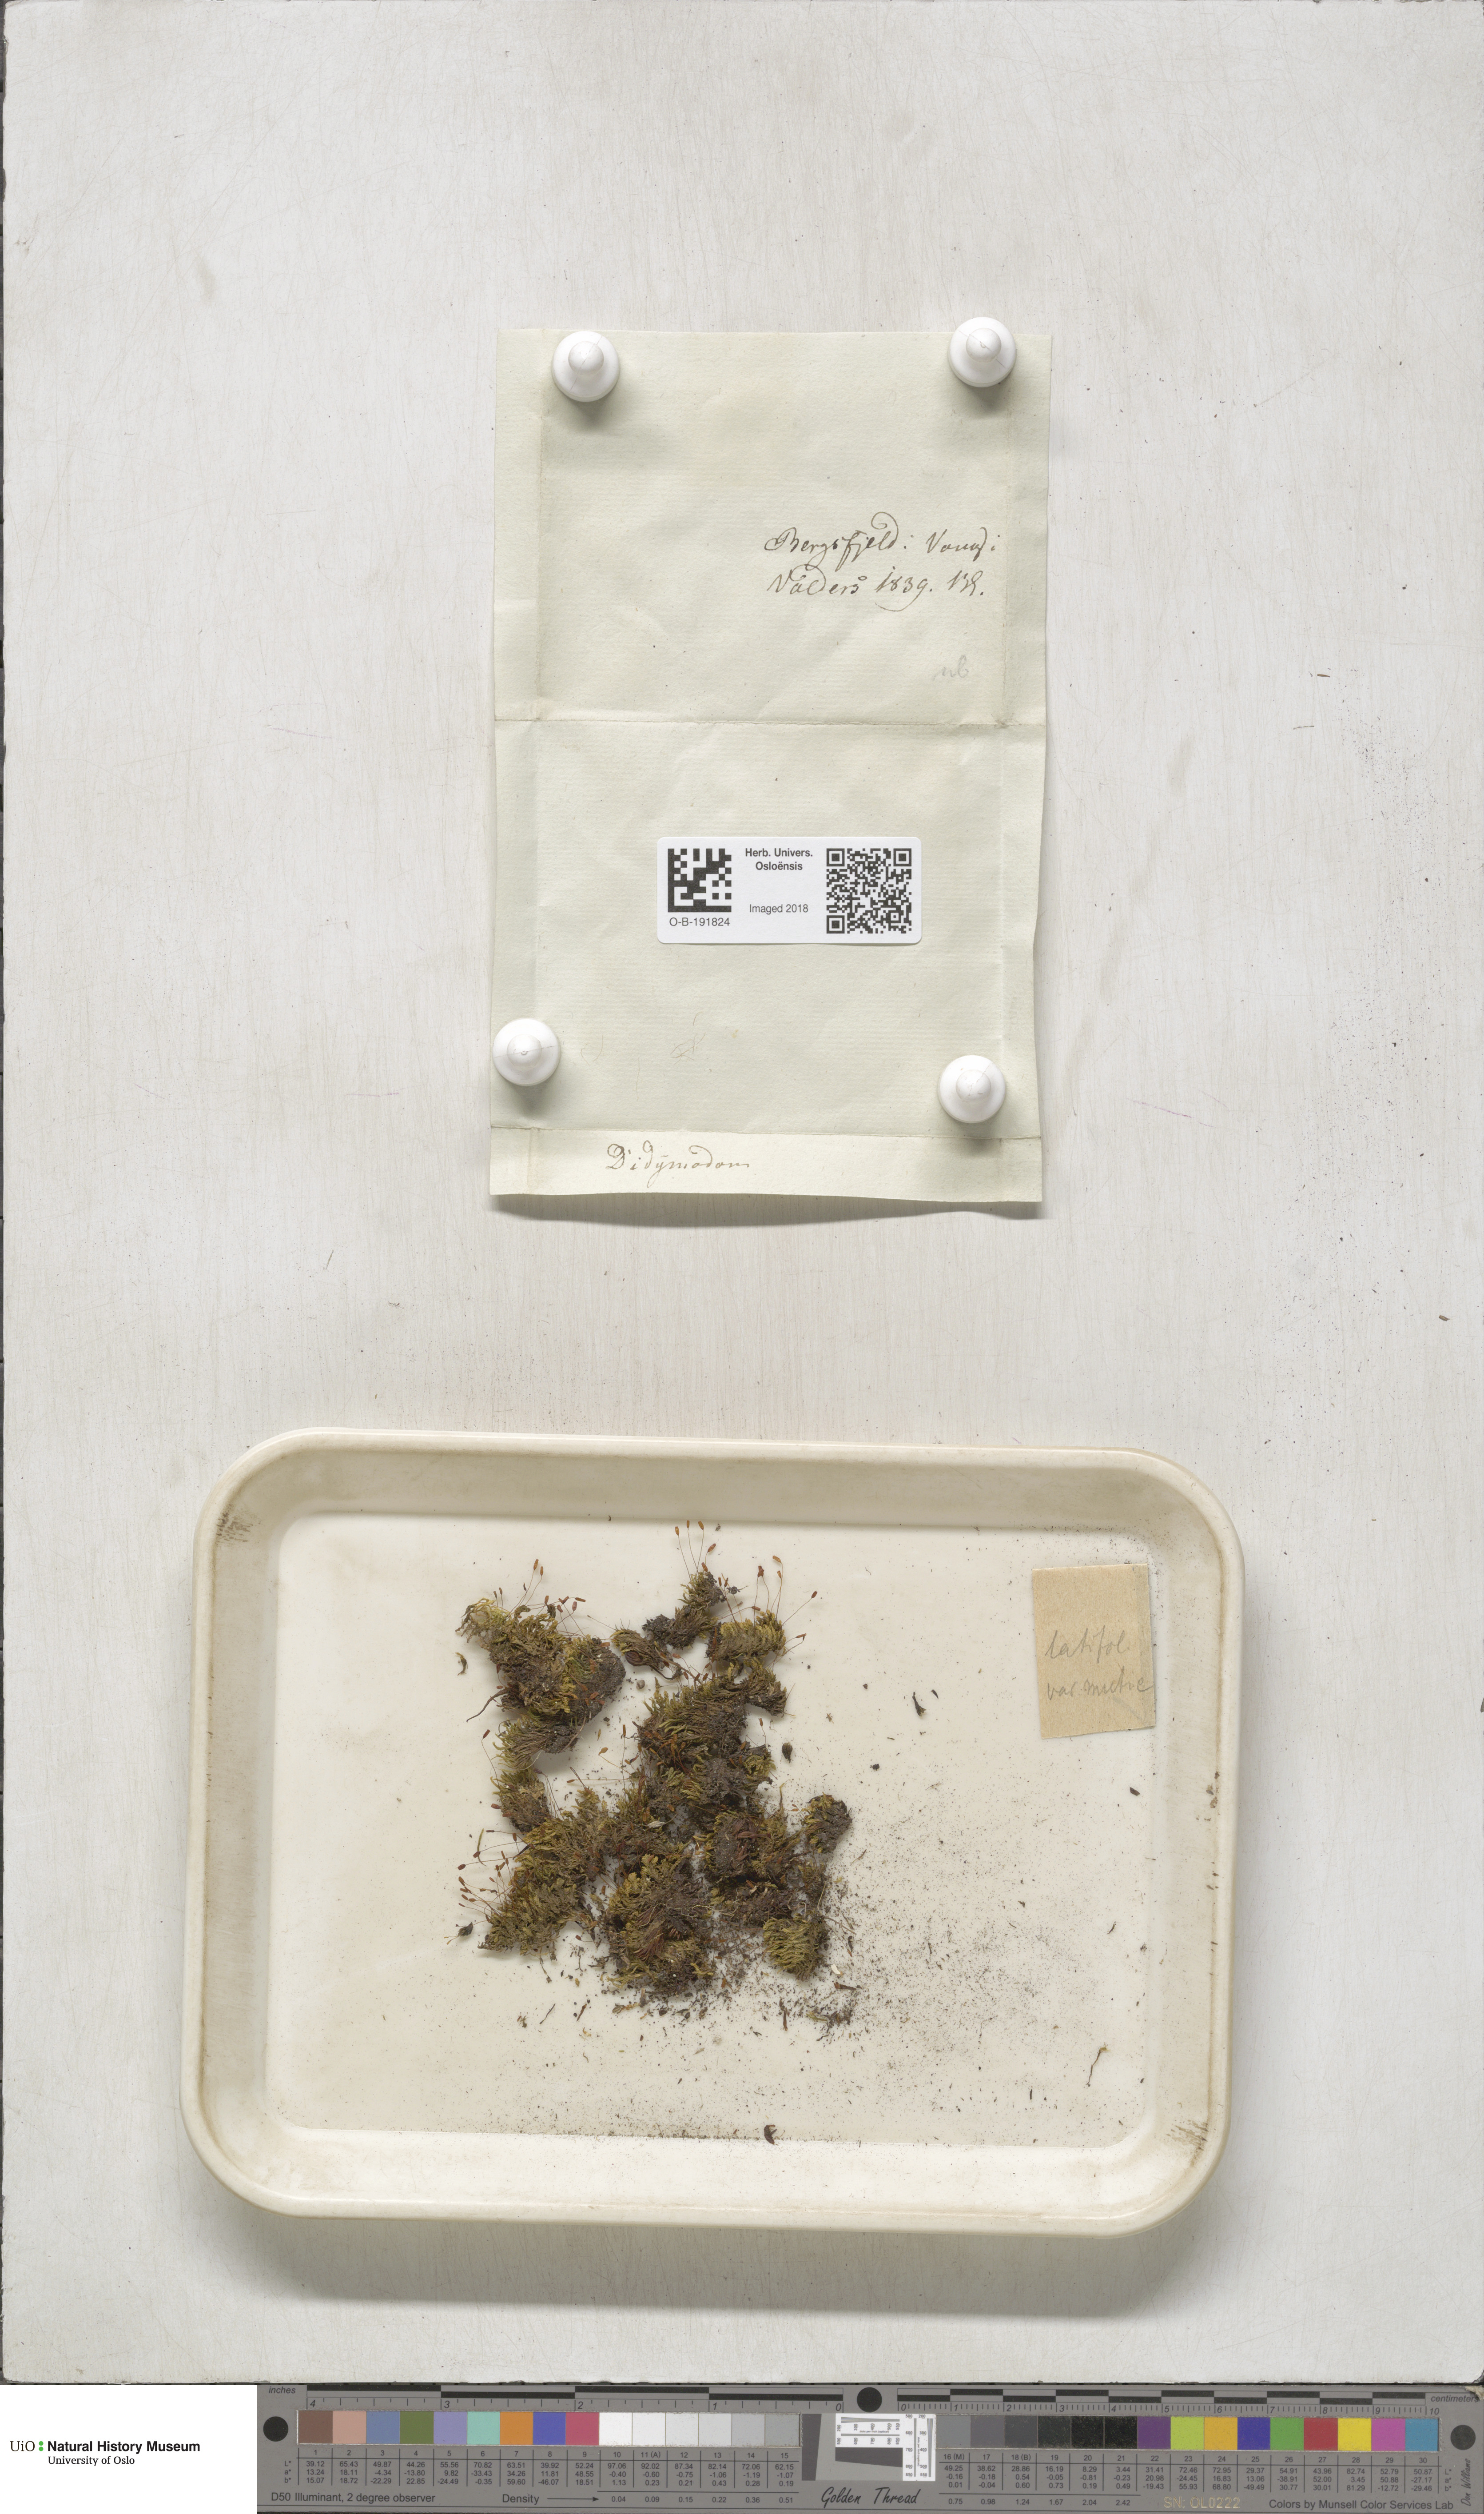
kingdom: Plantae
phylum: Bryophyta
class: Bryopsida
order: Pottiales
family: Pottiaceae
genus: Tortula
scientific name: Tortula hoppeana
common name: Hoppe's screw moss
